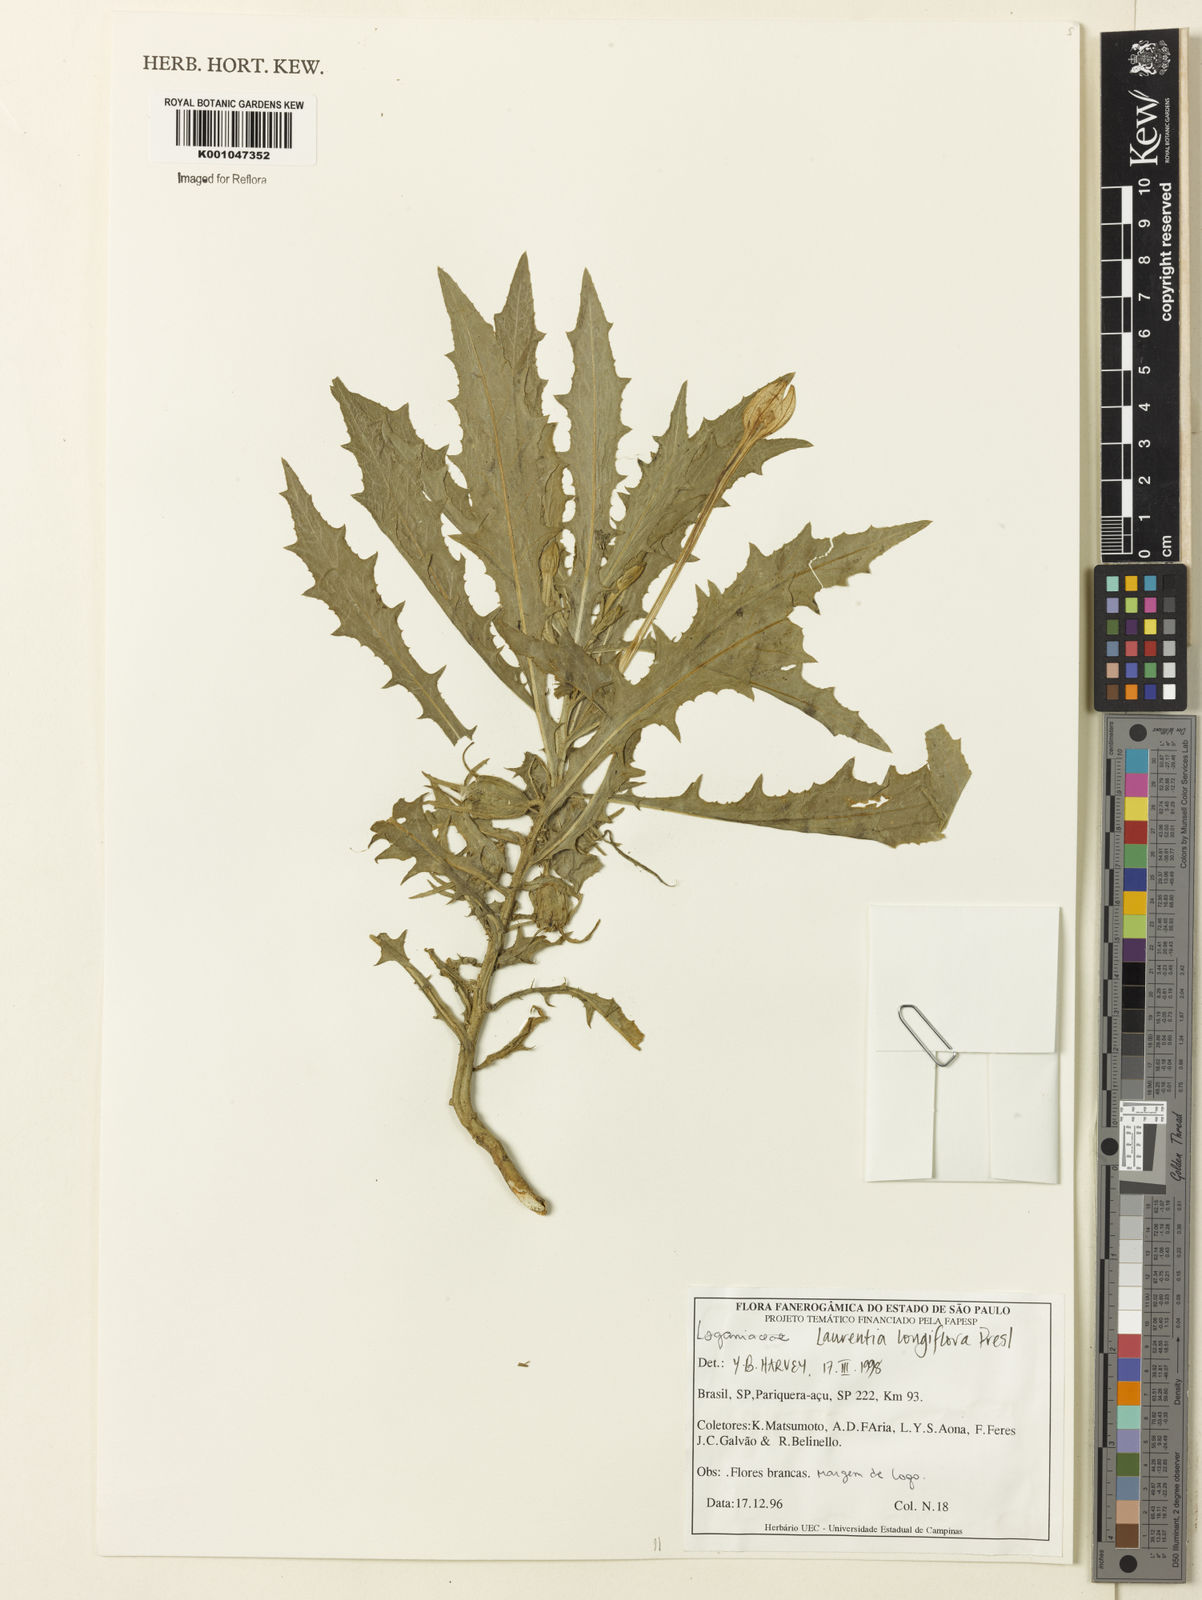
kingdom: Plantae
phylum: Tracheophyta
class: Magnoliopsida
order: Asterales
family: Campanulaceae
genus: Hippobroma
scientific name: Hippobroma longiflora
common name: Madamfate
